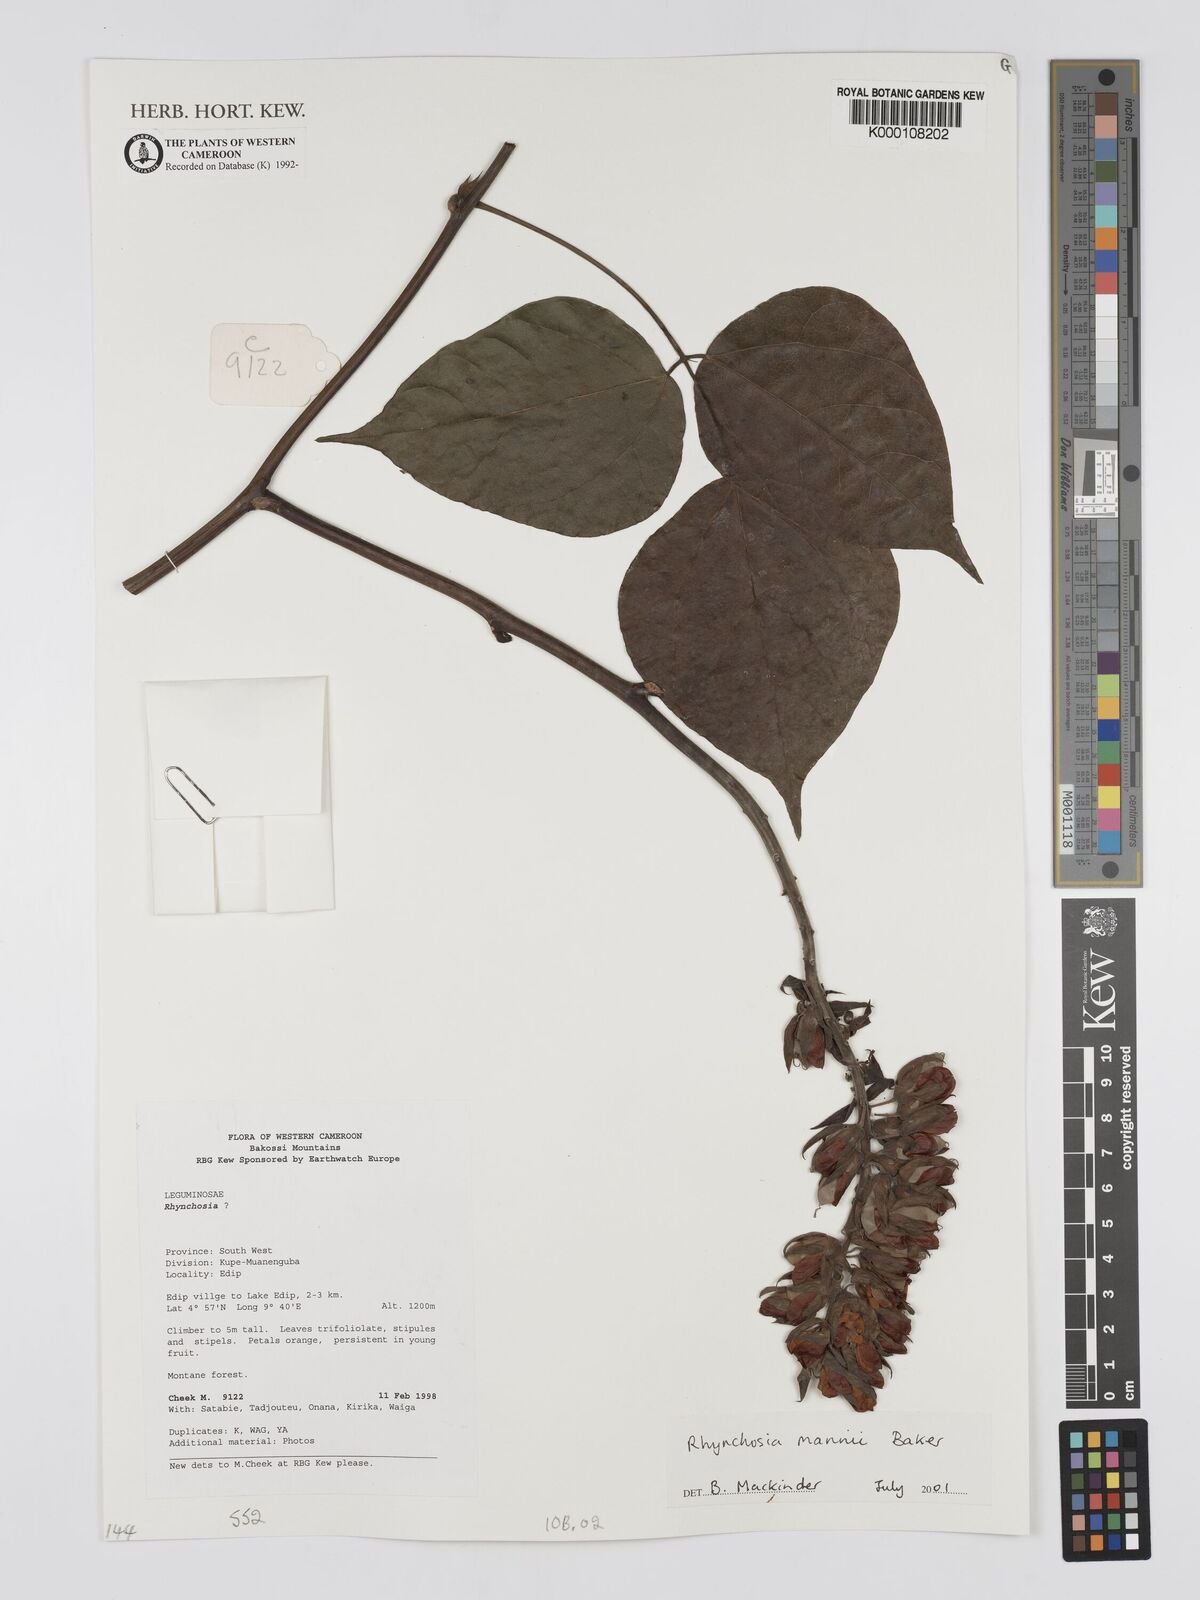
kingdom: Plantae
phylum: Tracheophyta
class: Magnoliopsida
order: Fabales
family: Fabaceae
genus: Rhynchosia
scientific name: Rhynchosia mannii
